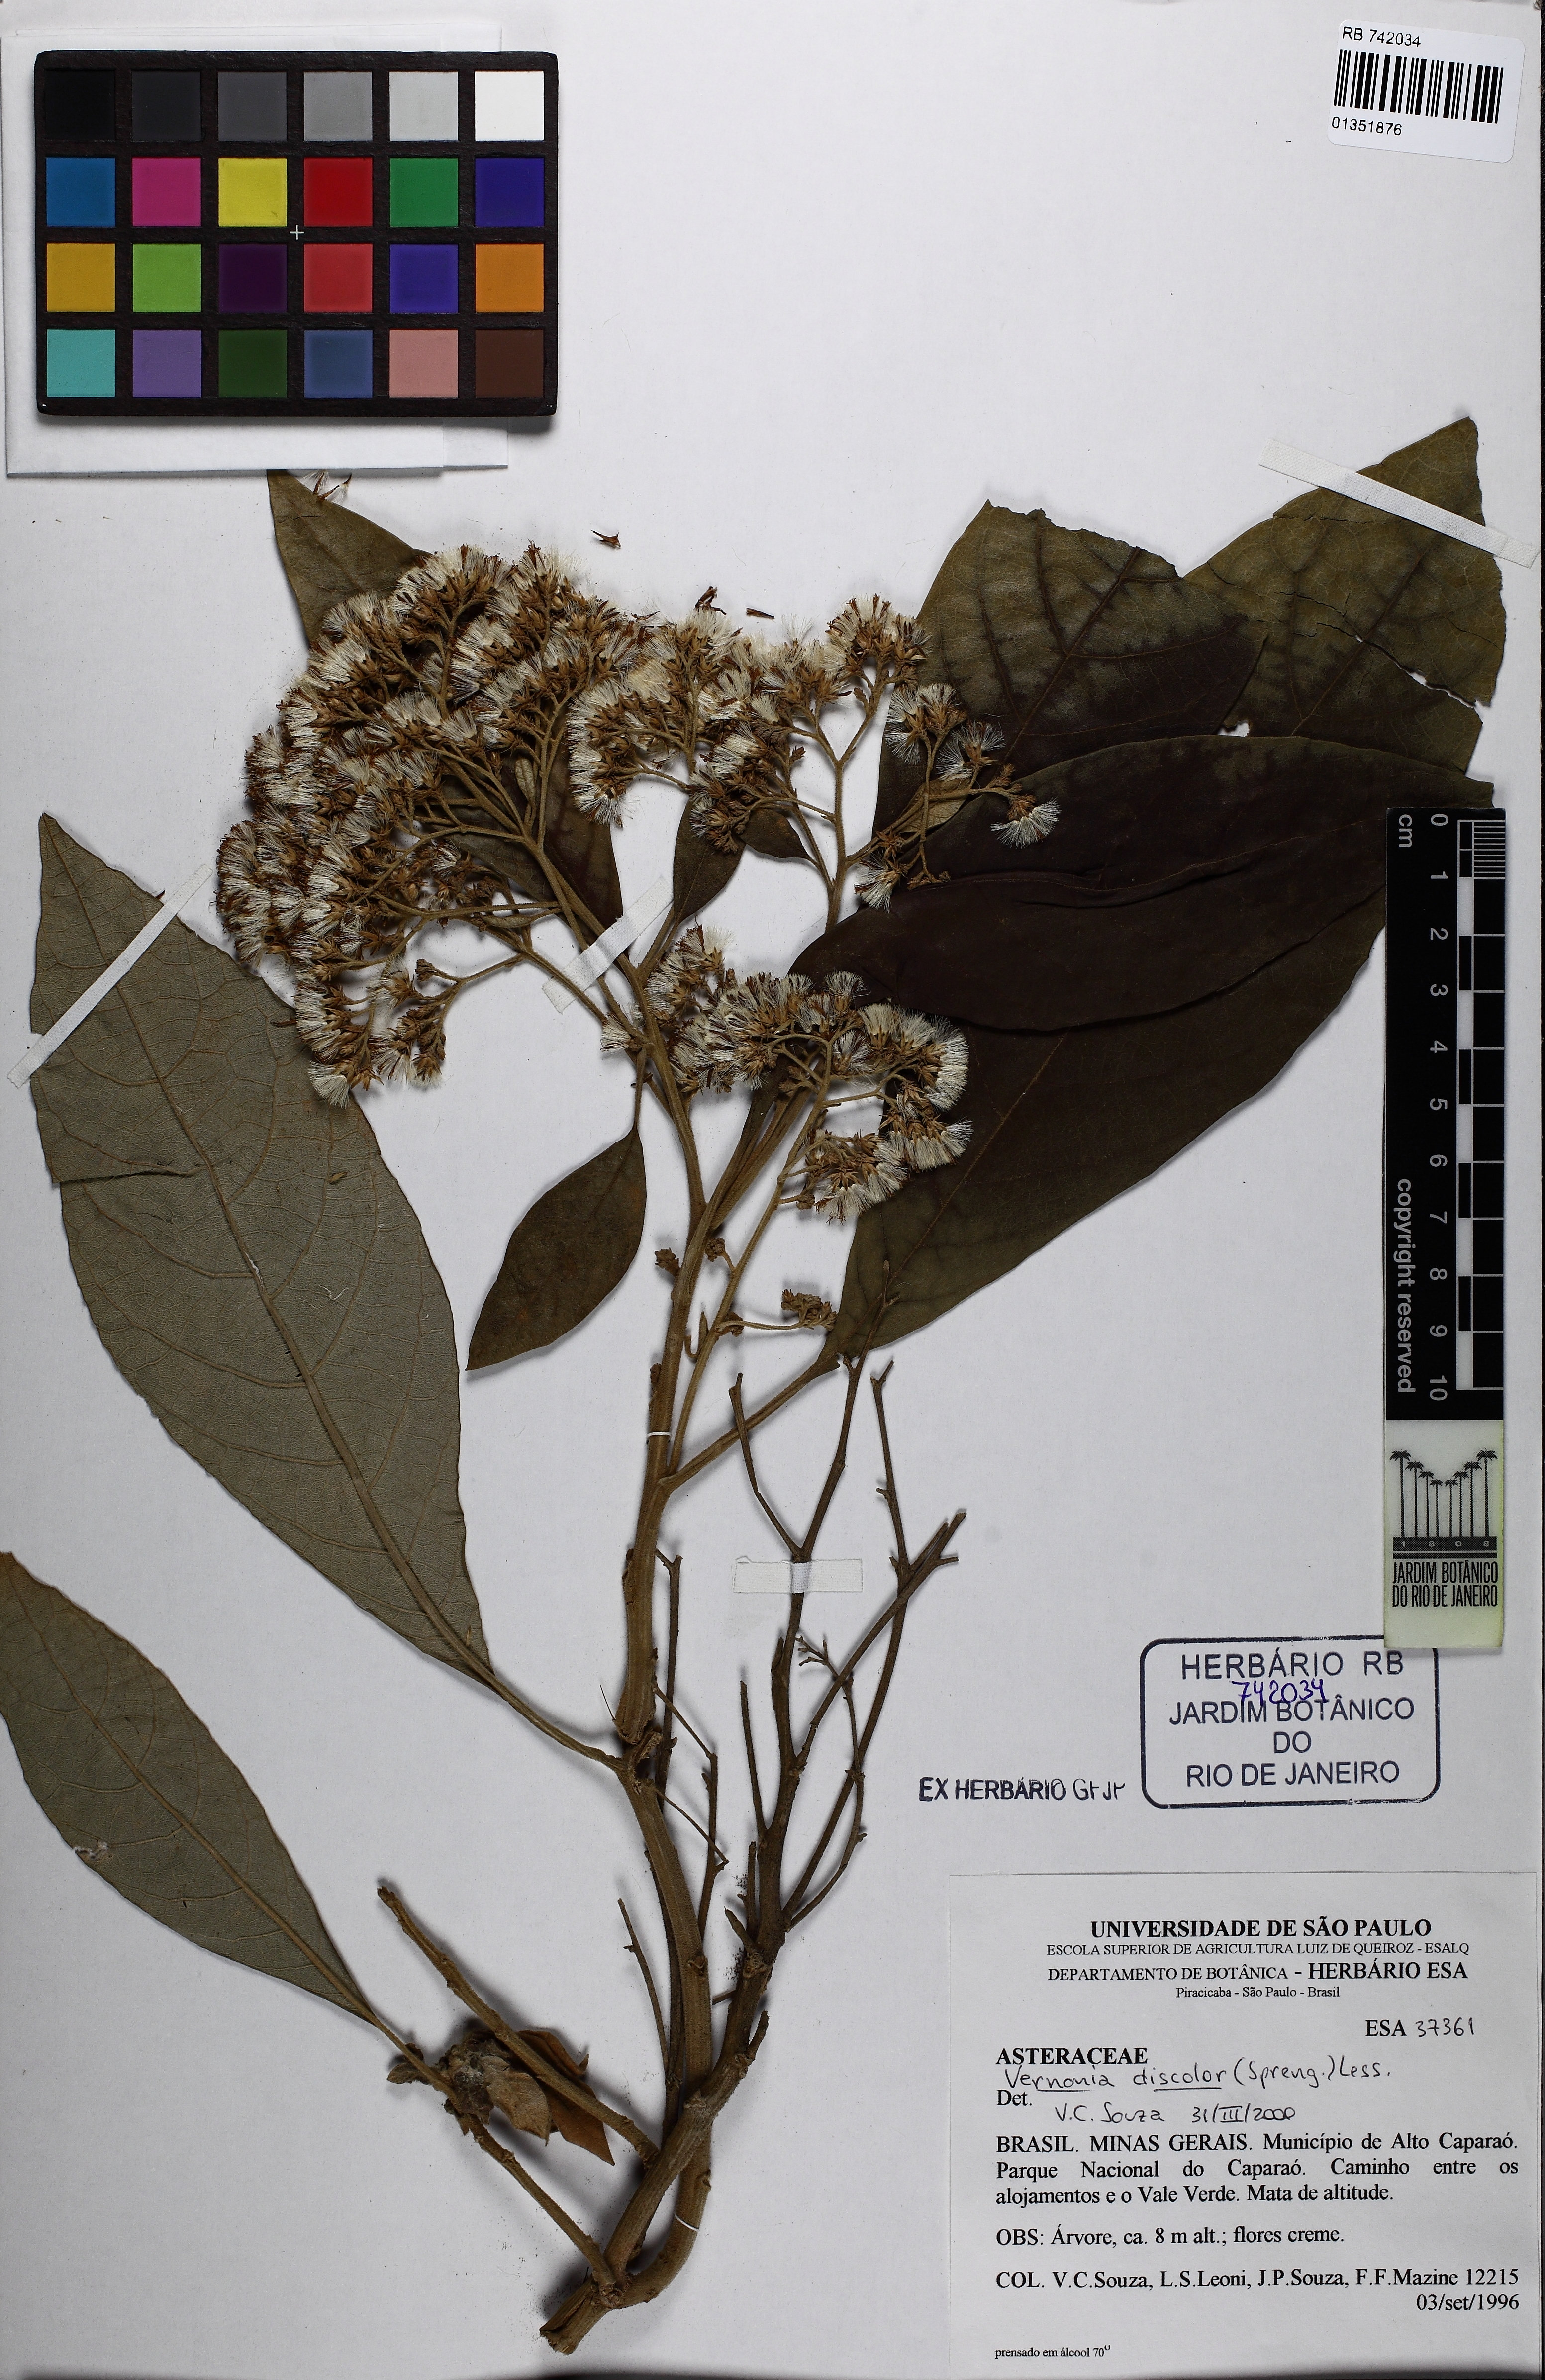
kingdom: Plantae
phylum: Tracheophyta
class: Magnoliopsida
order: Asterales
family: Asteraceae
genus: Vernonanthura
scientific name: Vernonanthura discolor
